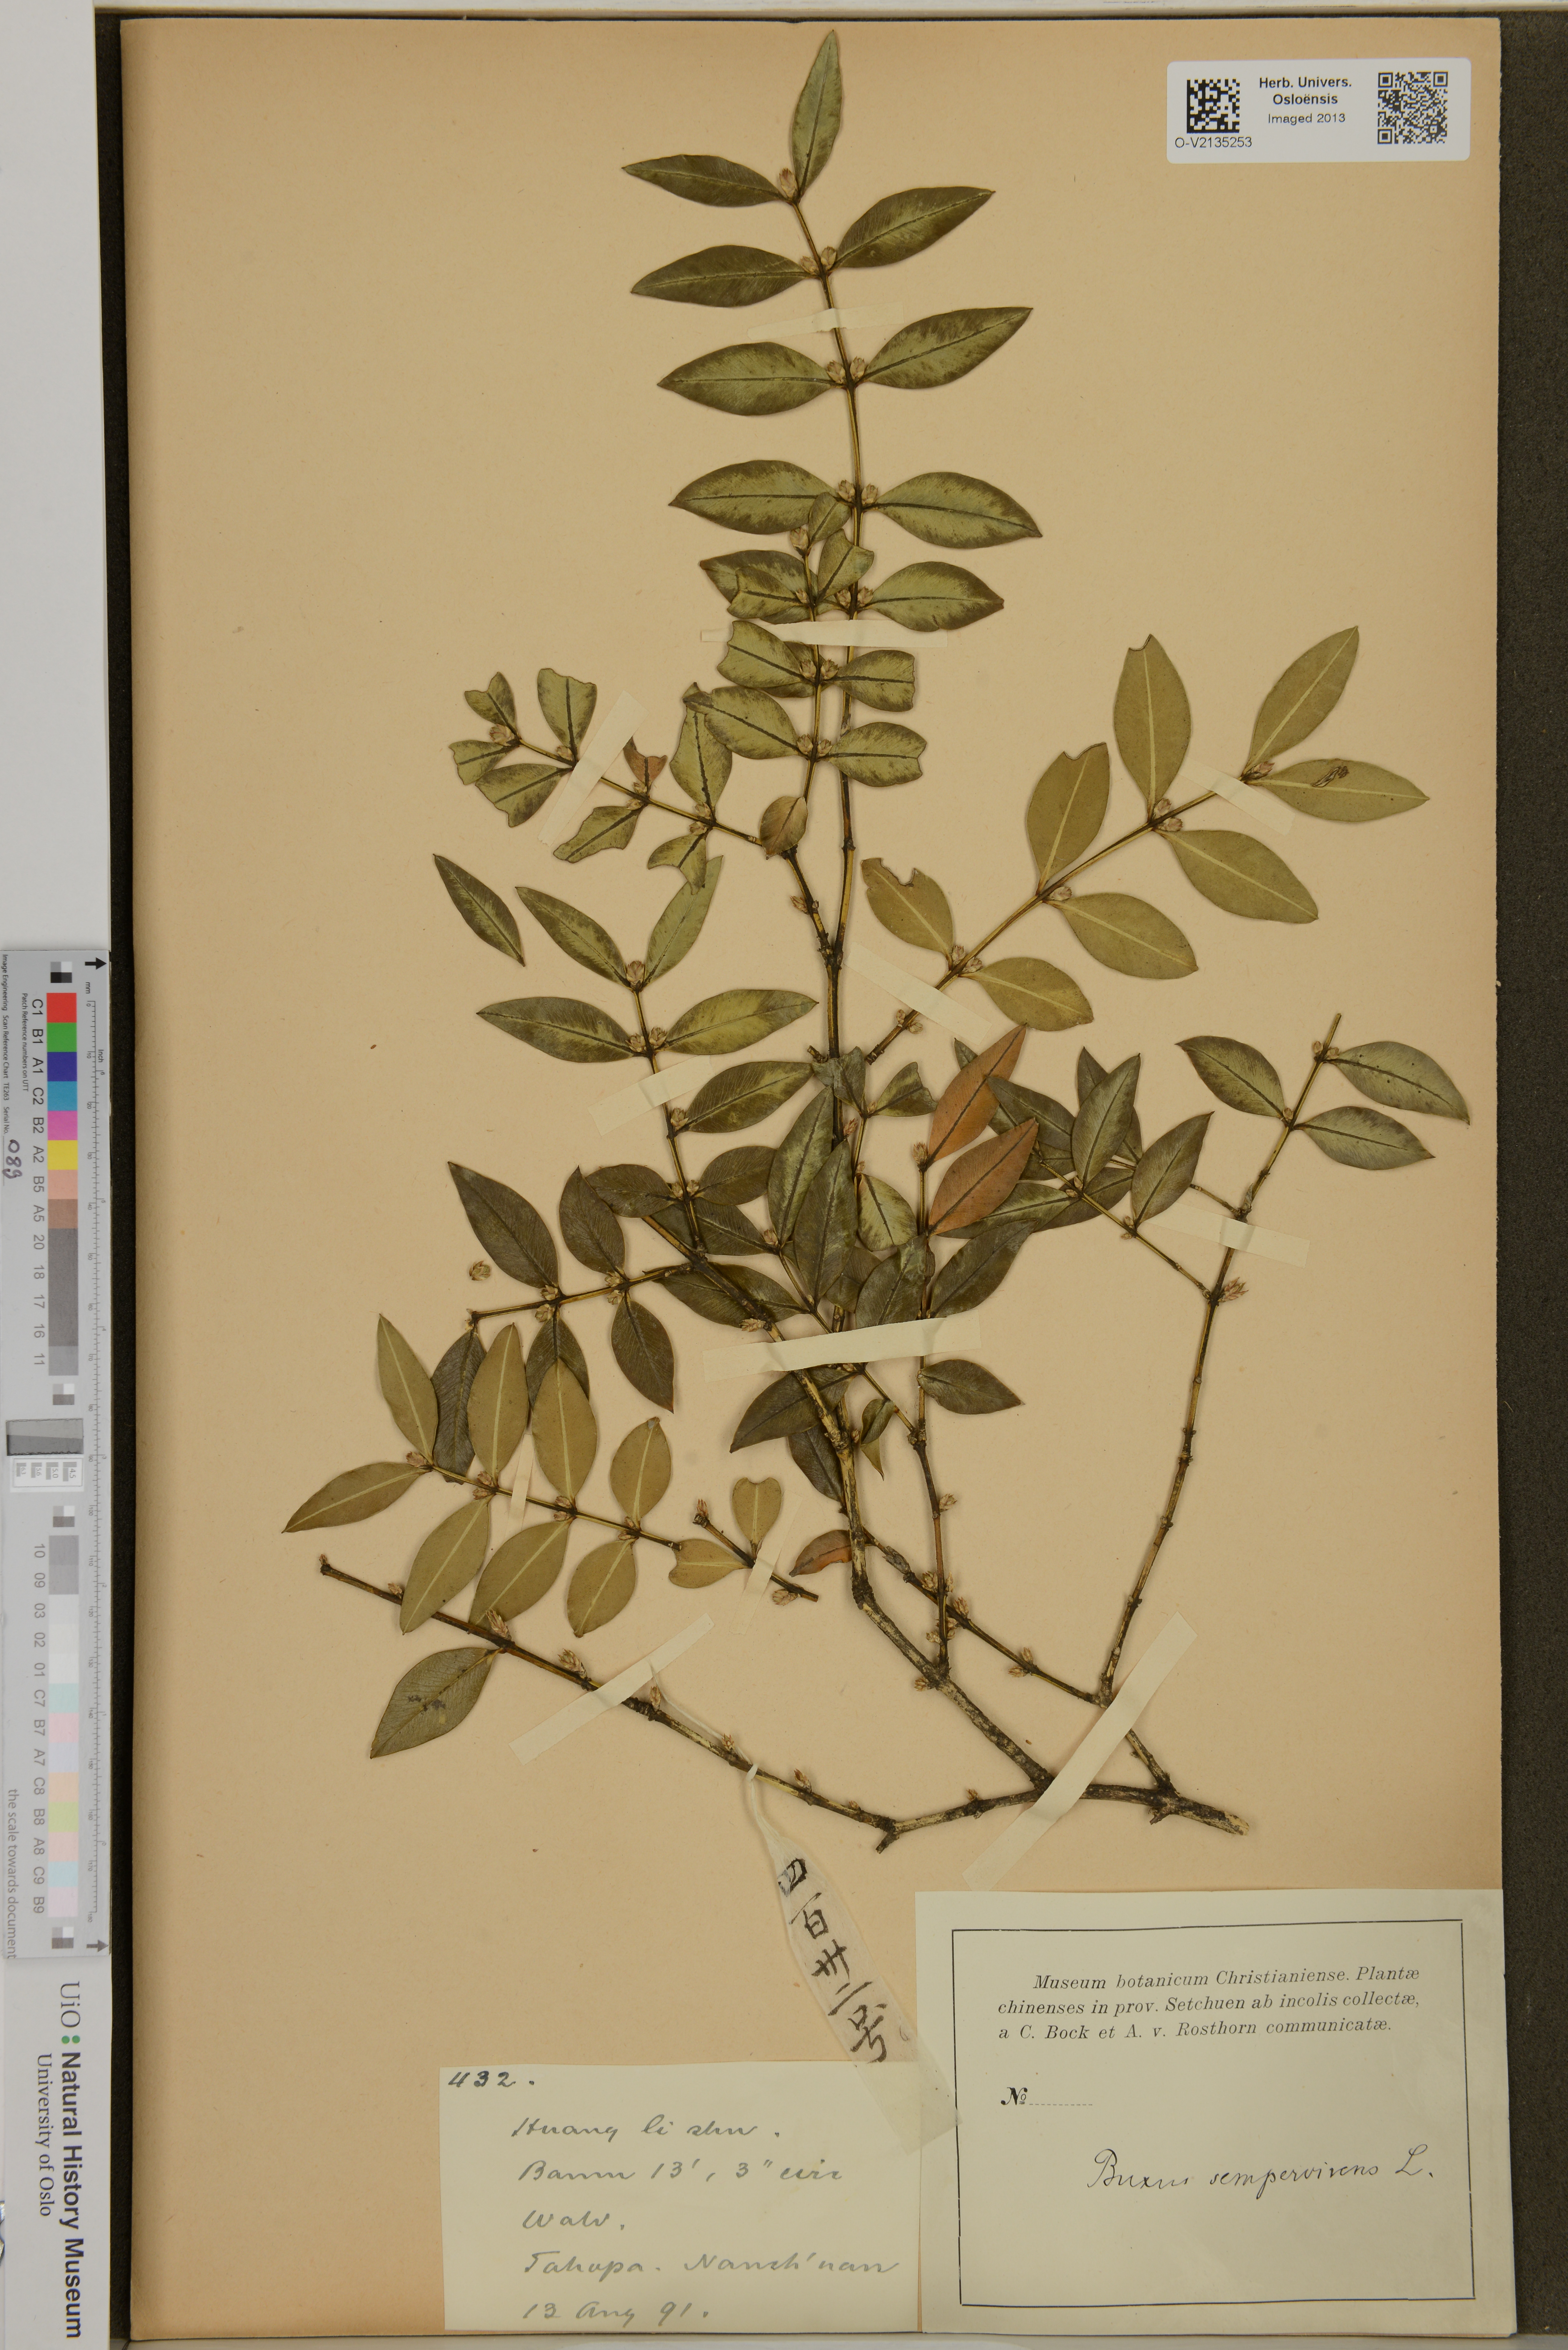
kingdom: Plantae
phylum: Tracheophyta
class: Magnoliopsida
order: Buxales
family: Buxaceae
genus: Buxus
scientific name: Buxus sempervirens
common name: Box
